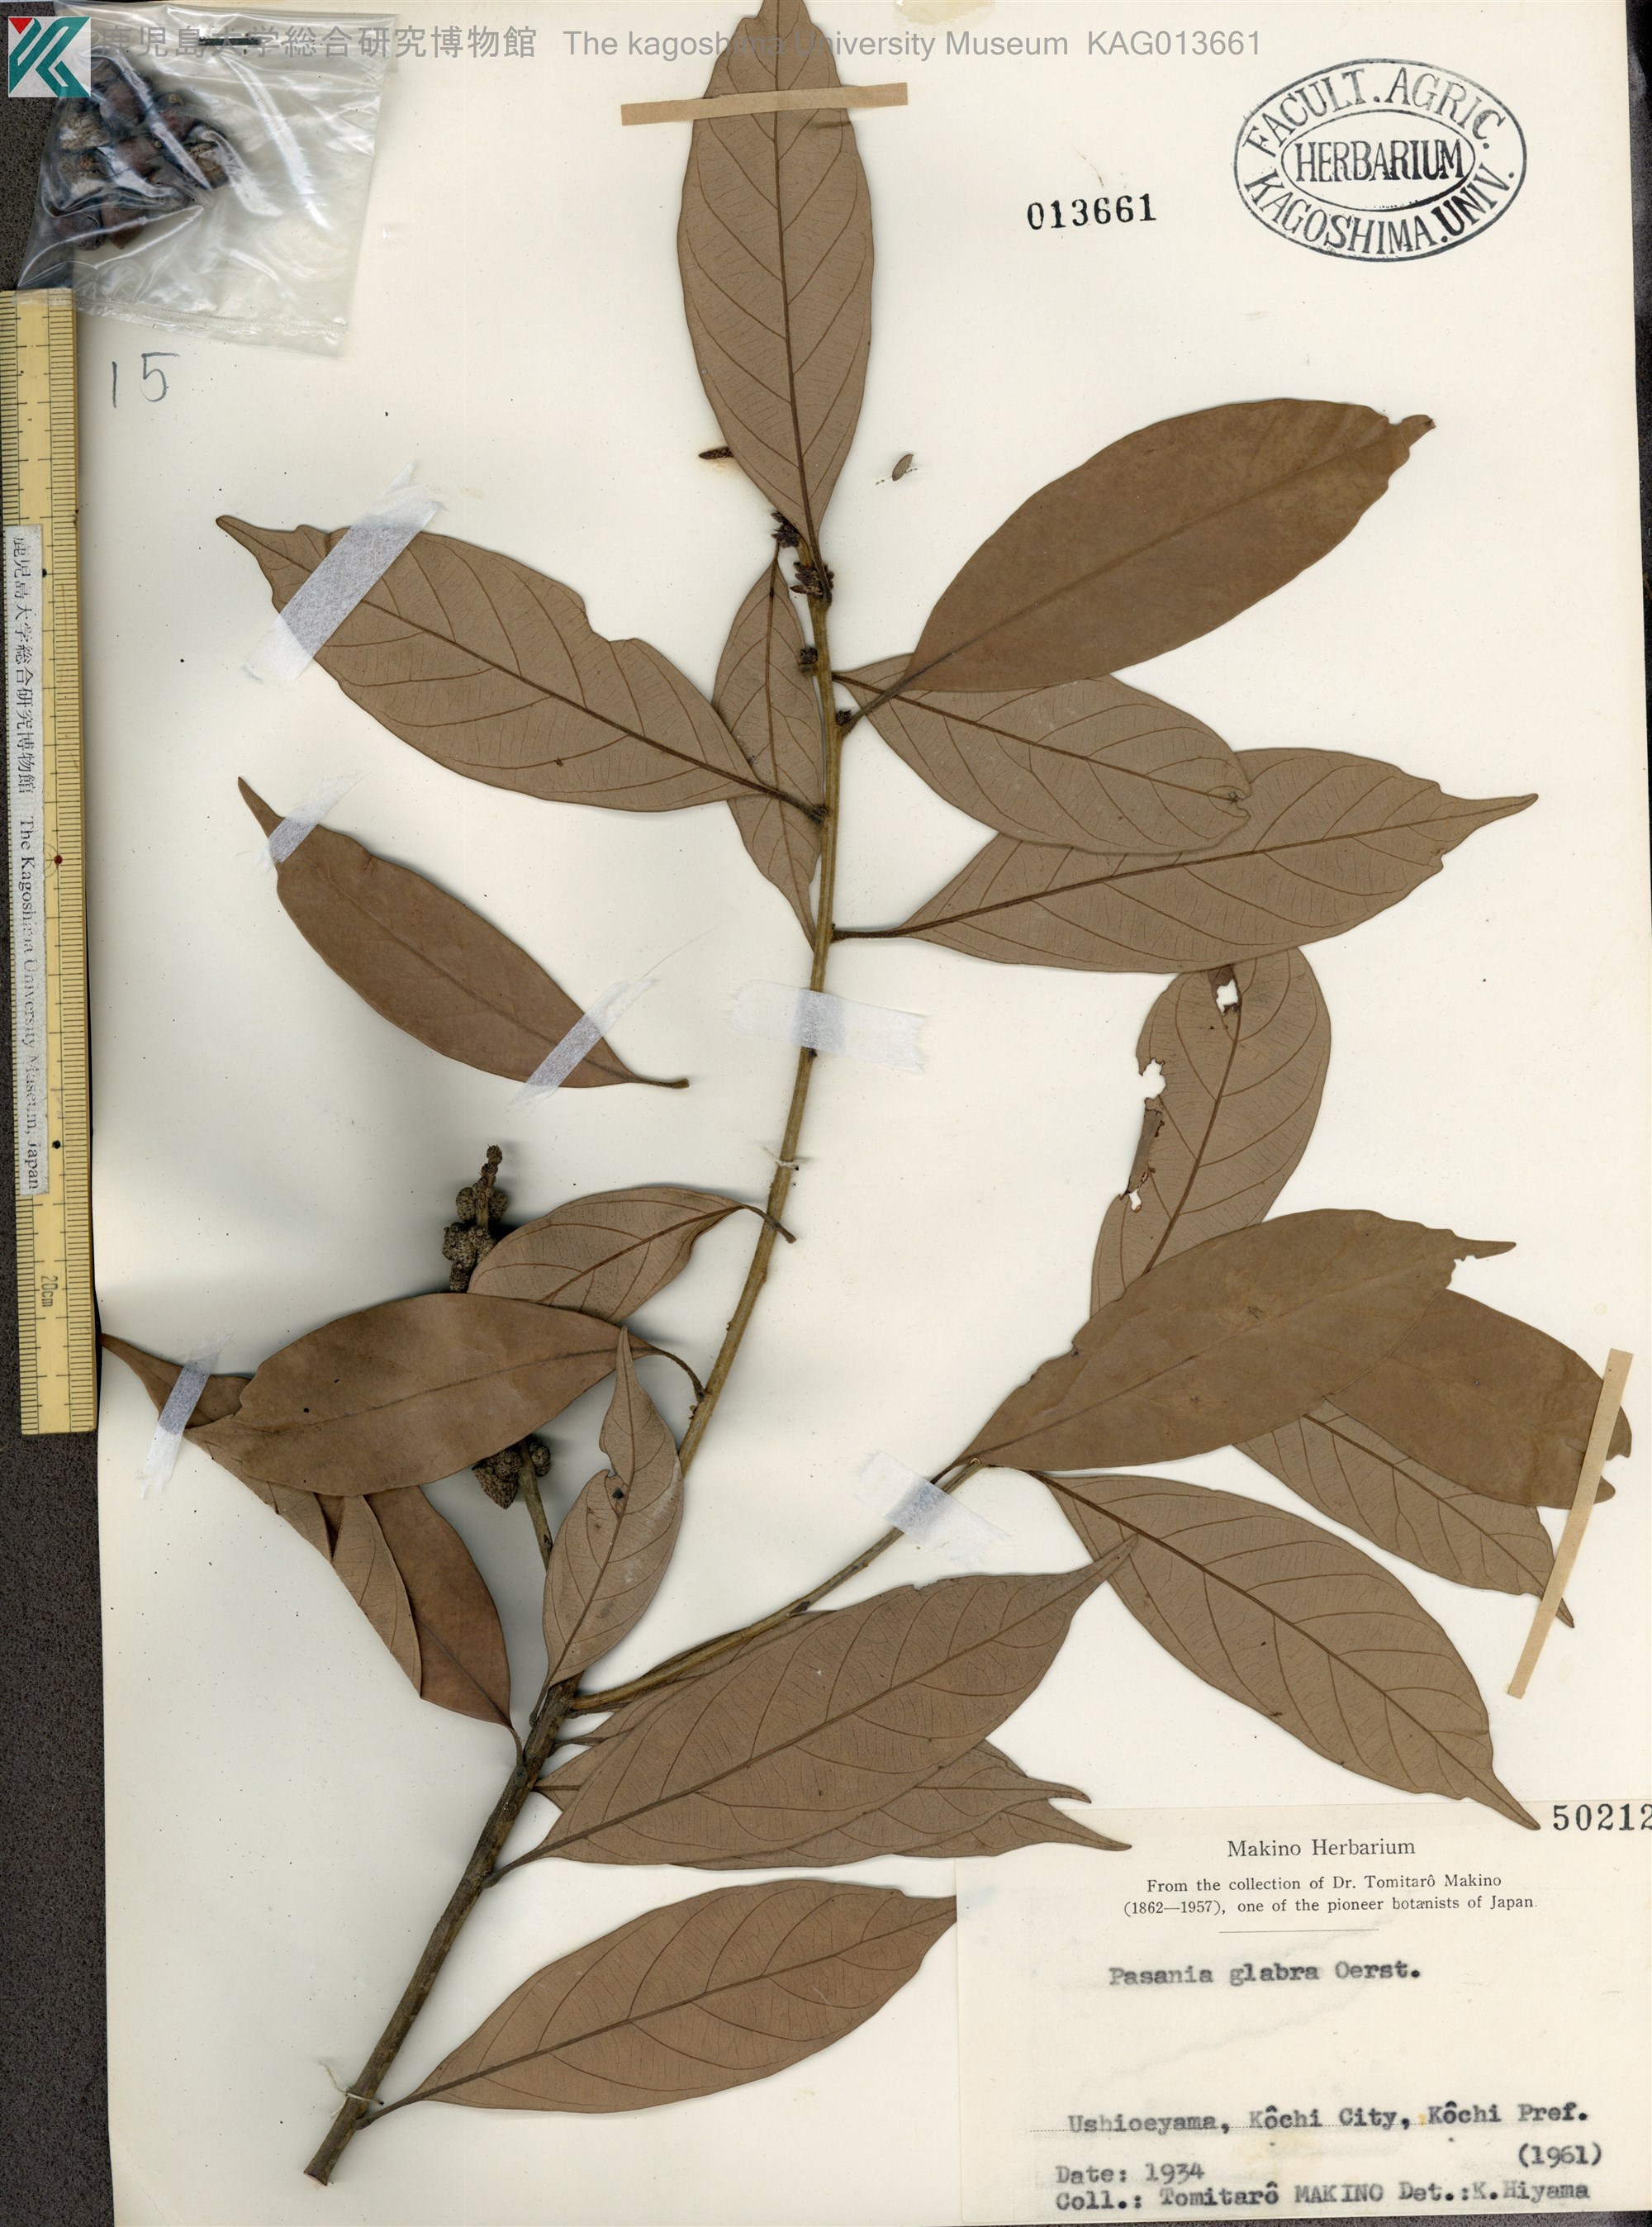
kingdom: Plantae
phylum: Tracheophyta
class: Magnoliopsida
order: Fagales
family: Fagaceae
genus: Lithocarpus
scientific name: Lithocarpus glaber
